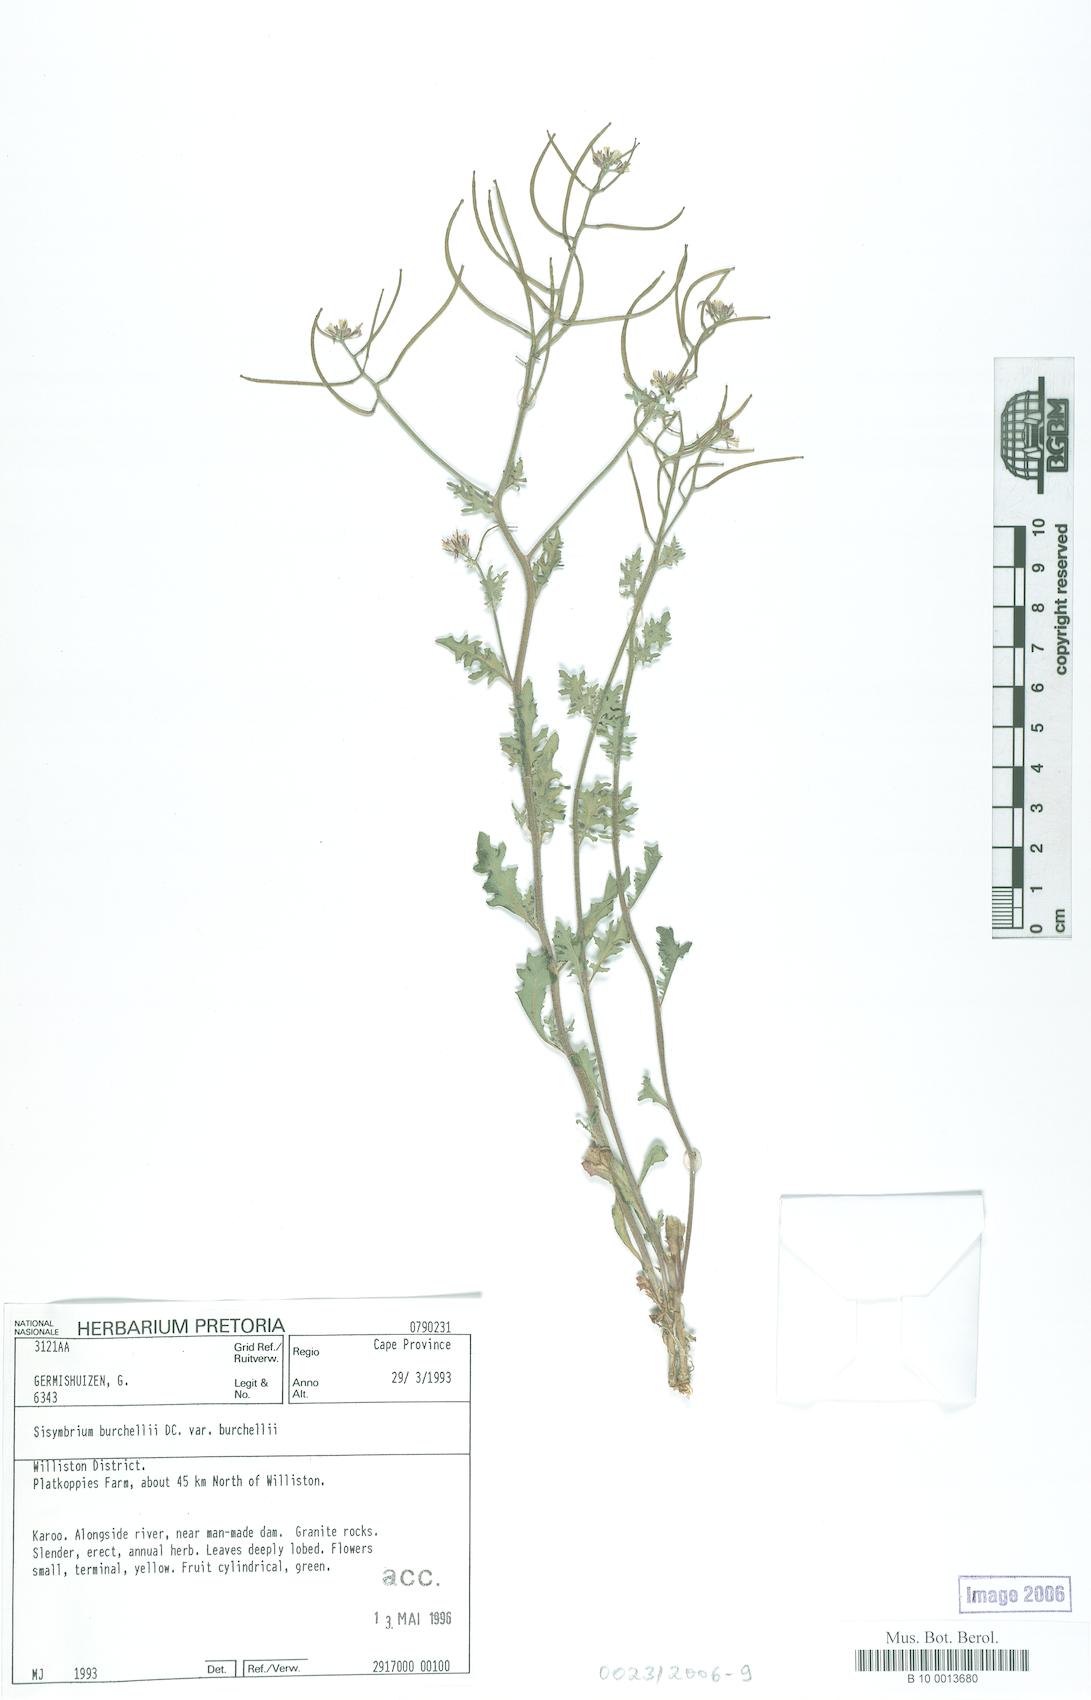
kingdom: Plantae
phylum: Tracheophyta
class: Magnoliopsida
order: Brassicales
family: Brassicaceae
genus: Sisymbrium
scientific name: Sisymbrium burchellii
